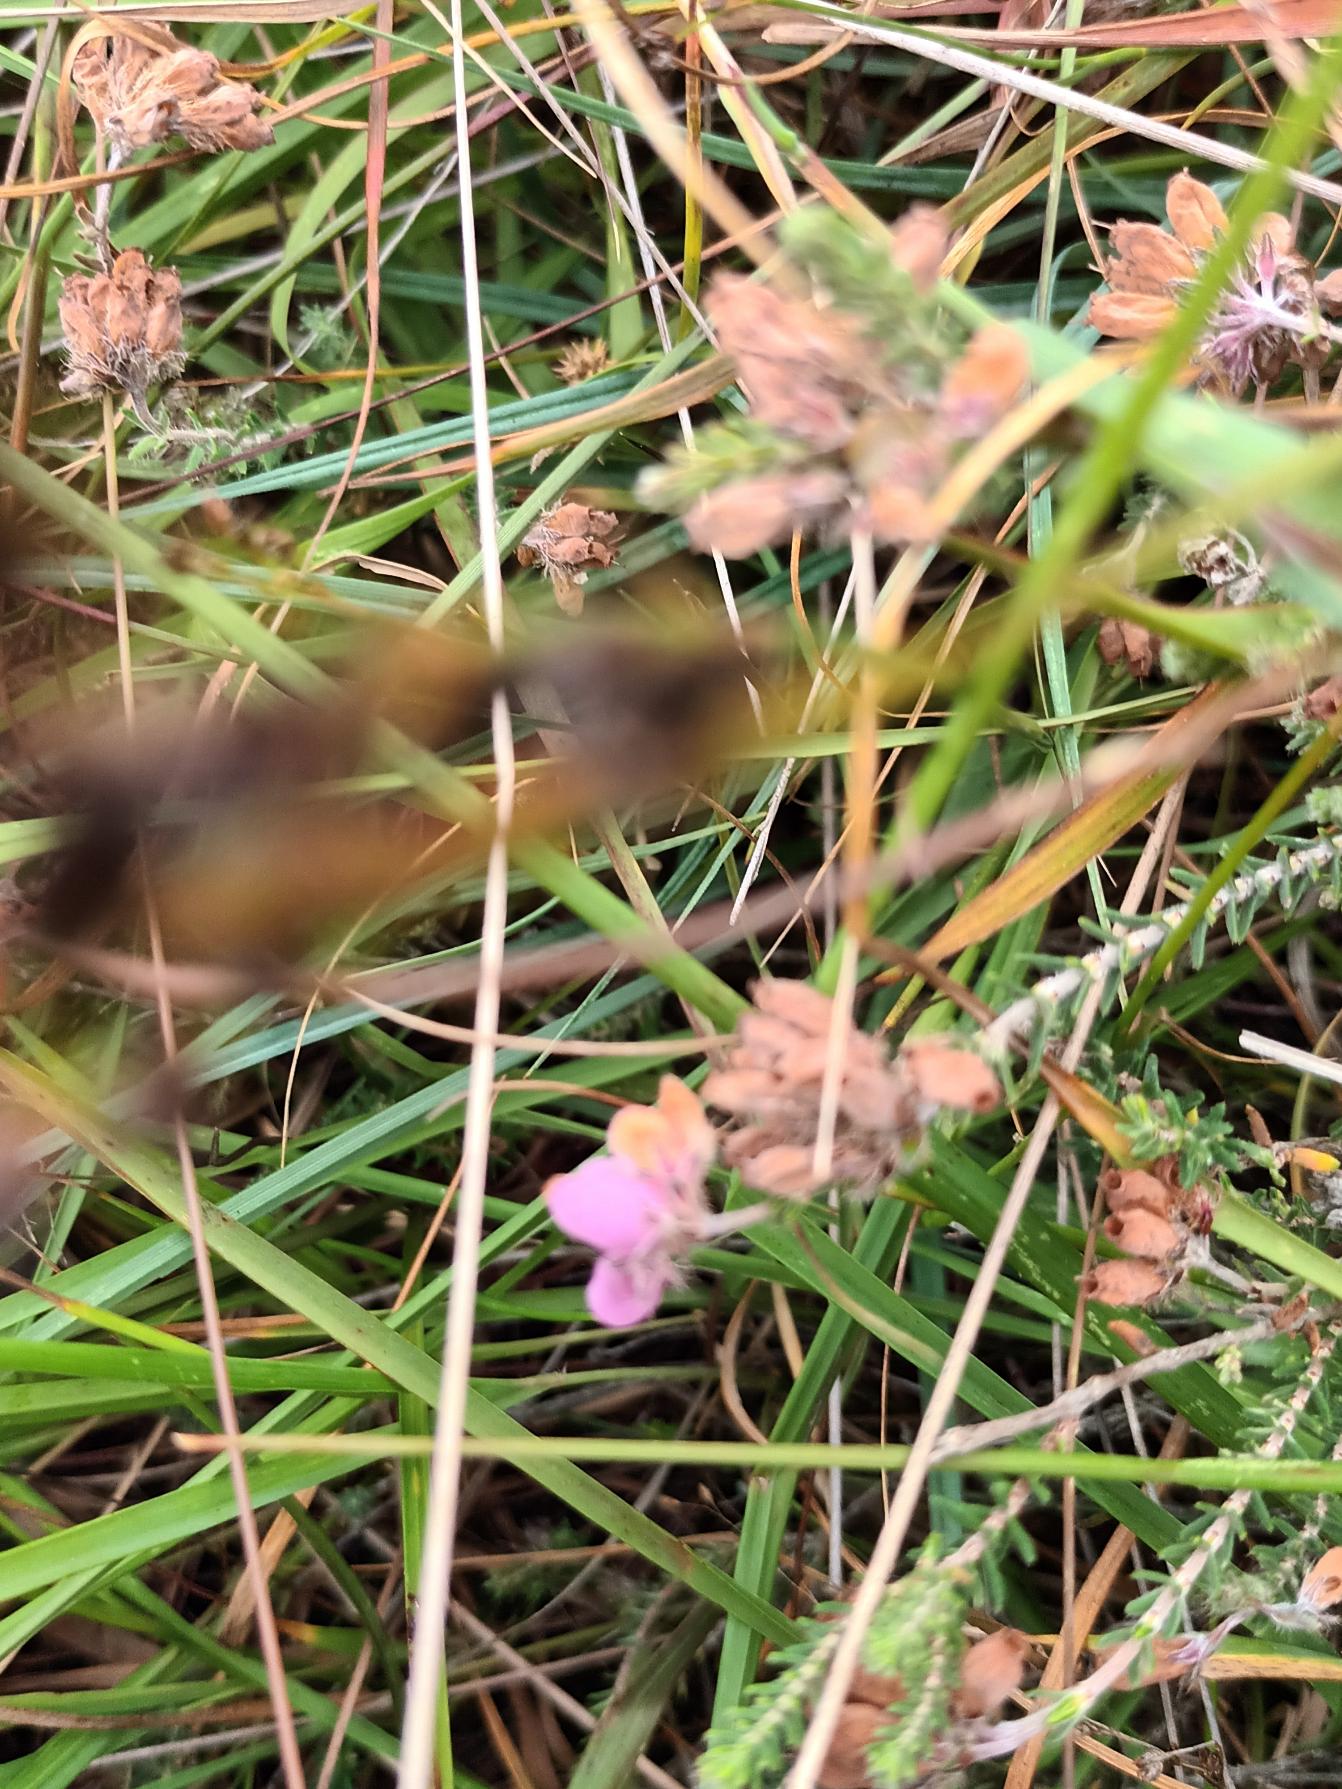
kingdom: Plantae
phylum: Tracheophyta
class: Magnoliopsida
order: Ericales
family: Ericaceae
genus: Erica
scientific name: Erica tetralix
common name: Klokkelyng
